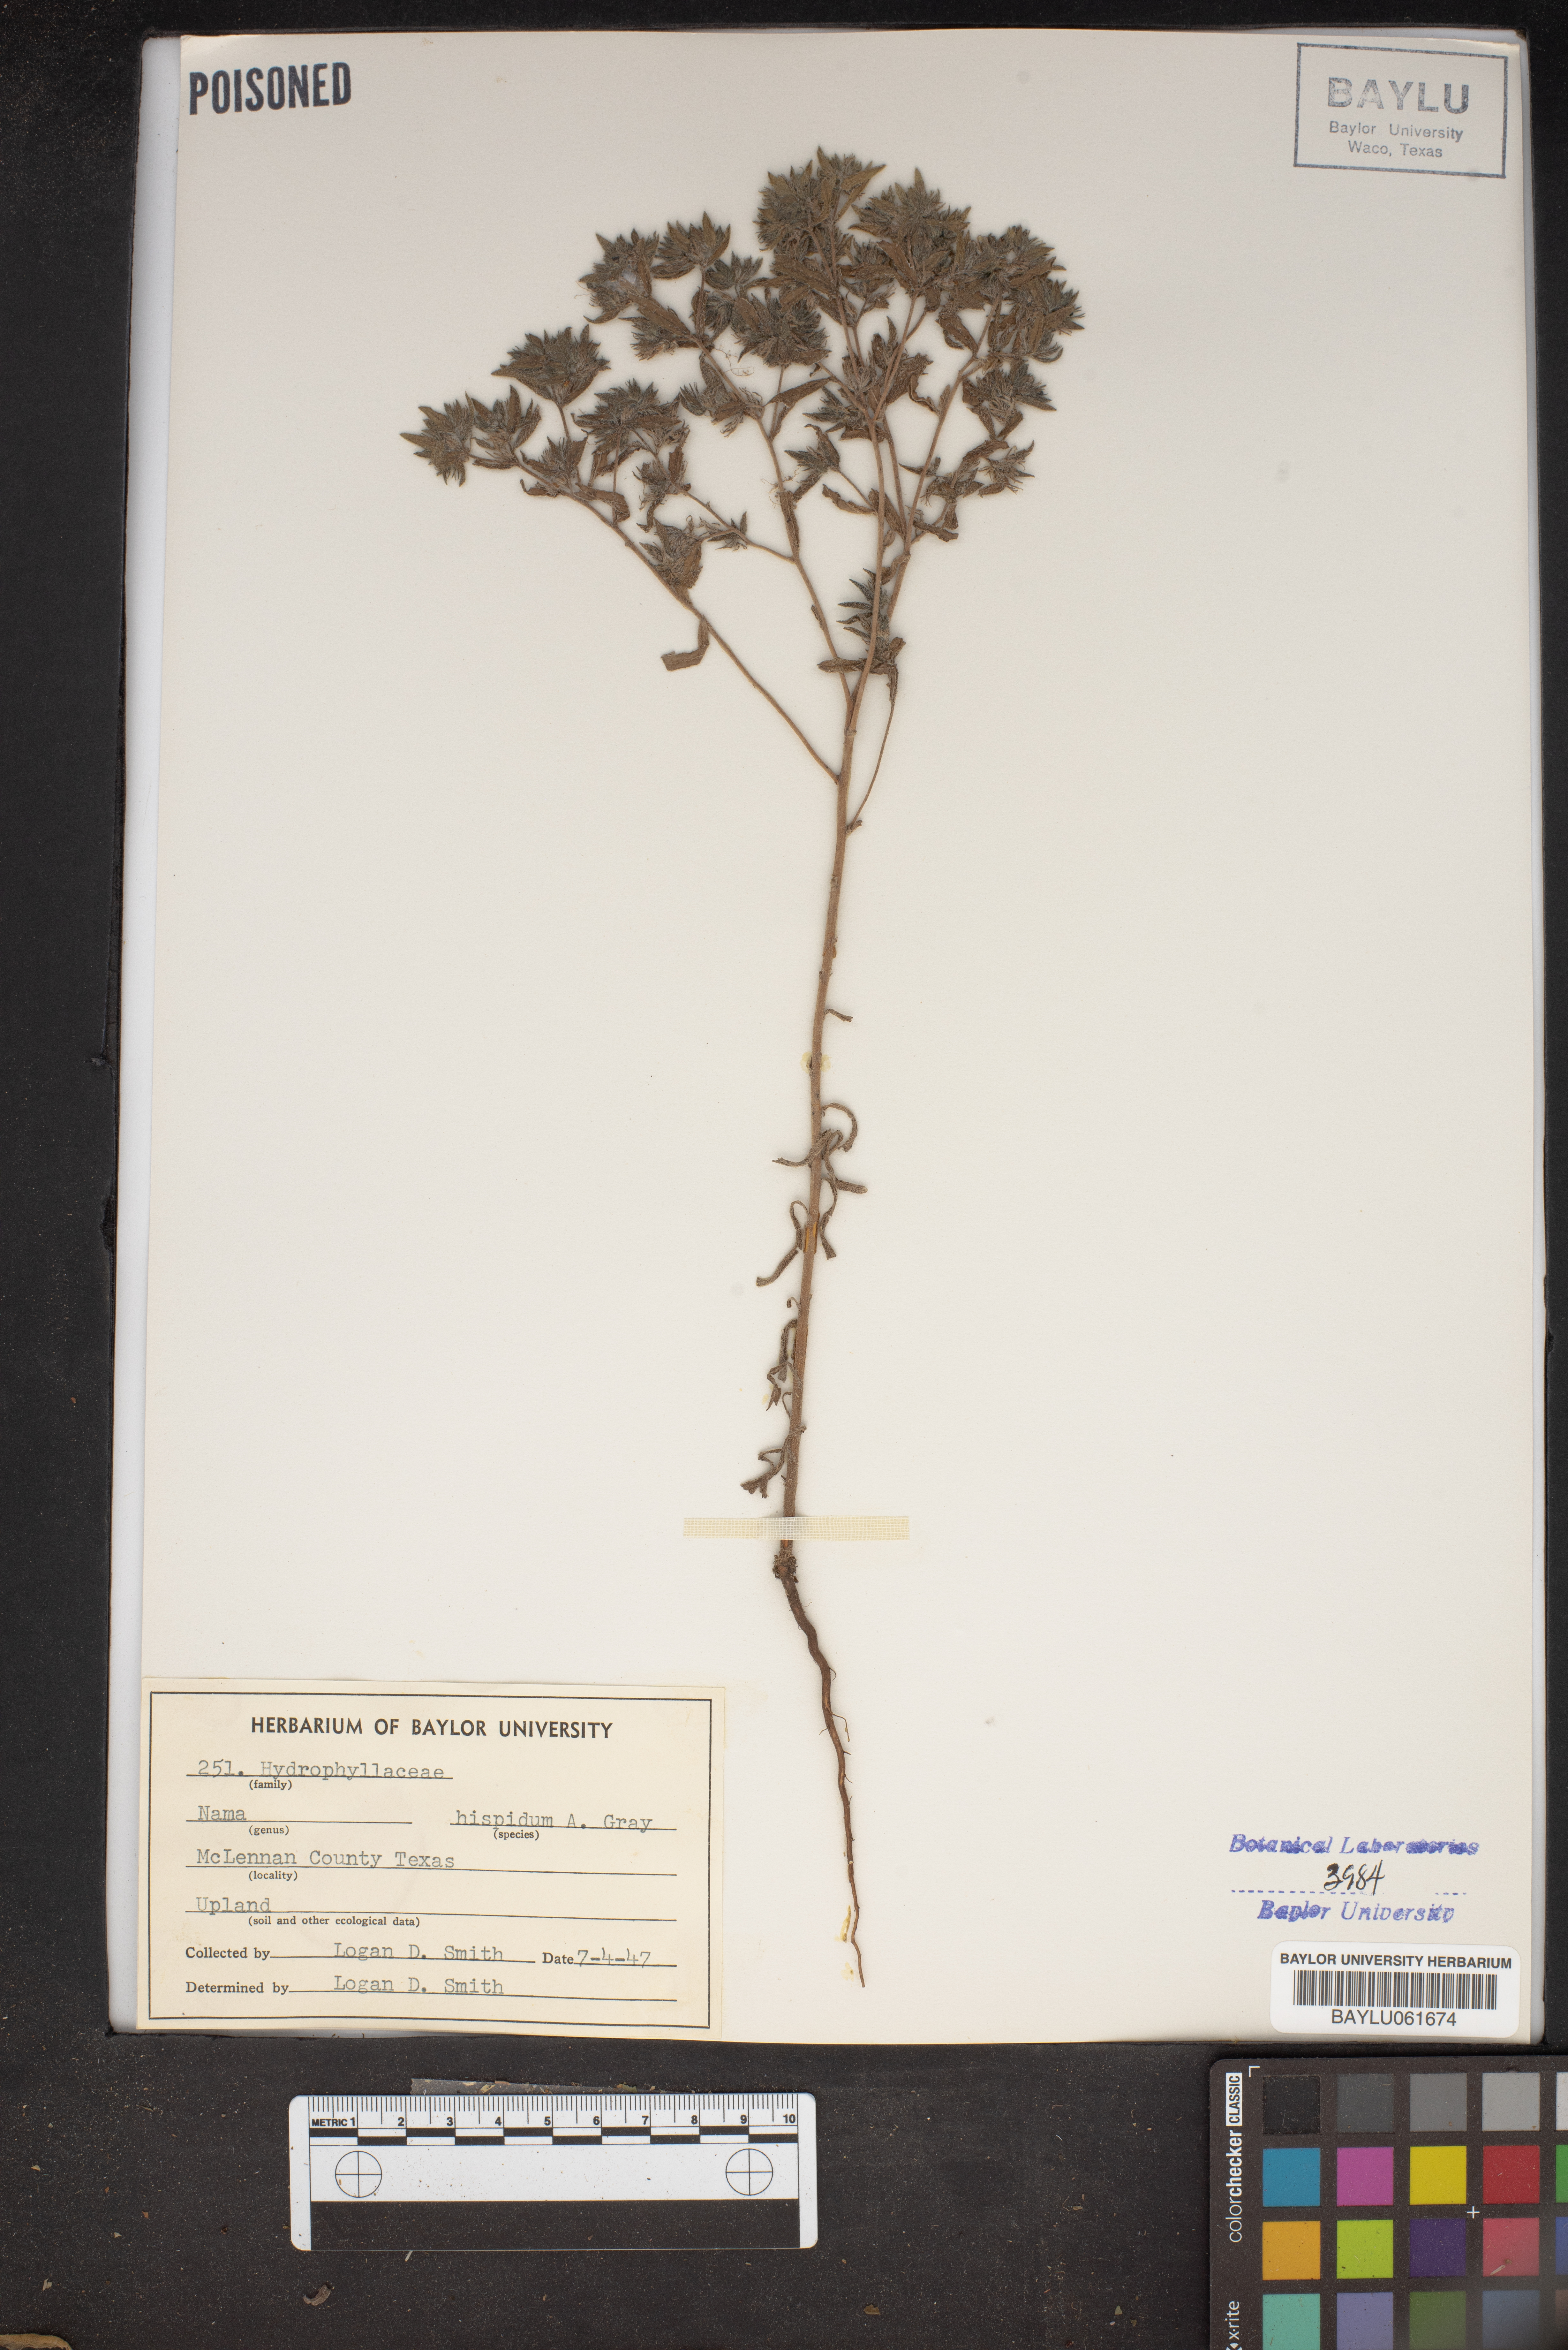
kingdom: Plantae
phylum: Tracheophyta
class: Magnoliopsida
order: Boraginales
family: Namaceae
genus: Nama
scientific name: Nama hispida
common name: Bristly nama
